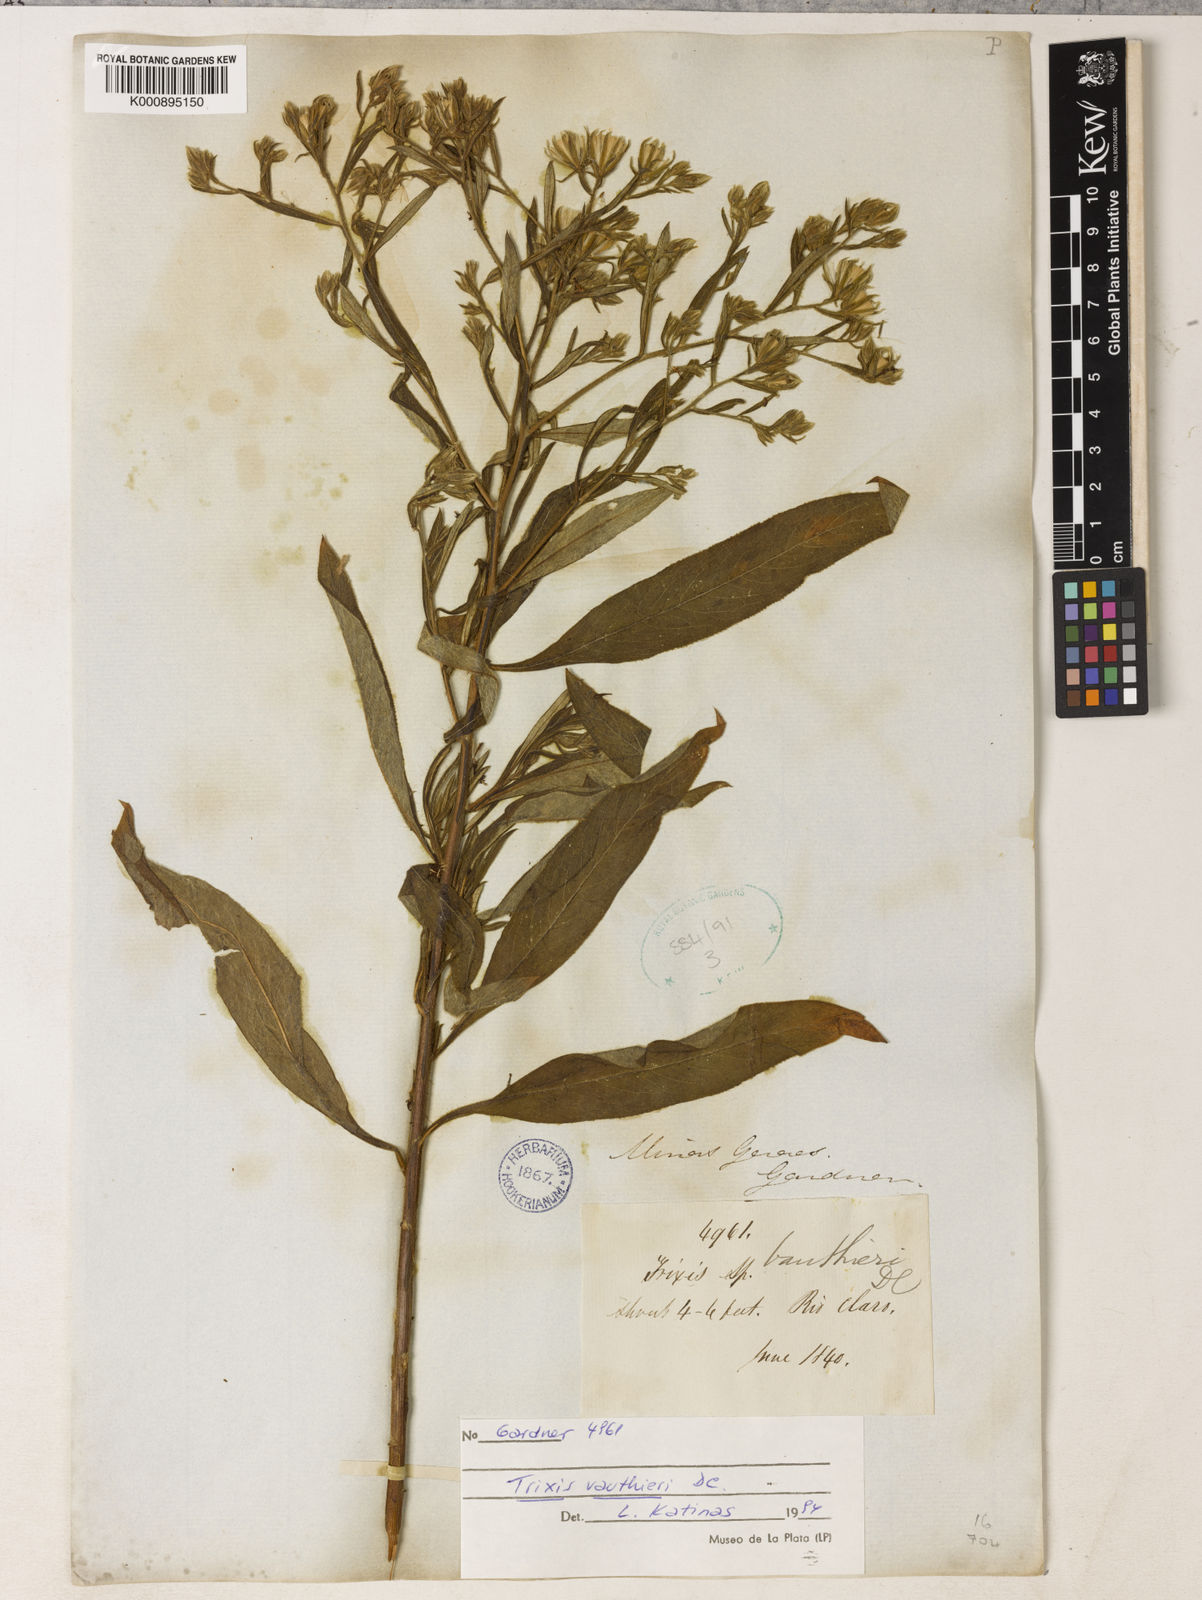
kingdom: Plantae
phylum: Tracheophyta
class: Magnoliopsida
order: Asterales
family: Asteraceae
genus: Trixis
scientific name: Trixis vauthieri
